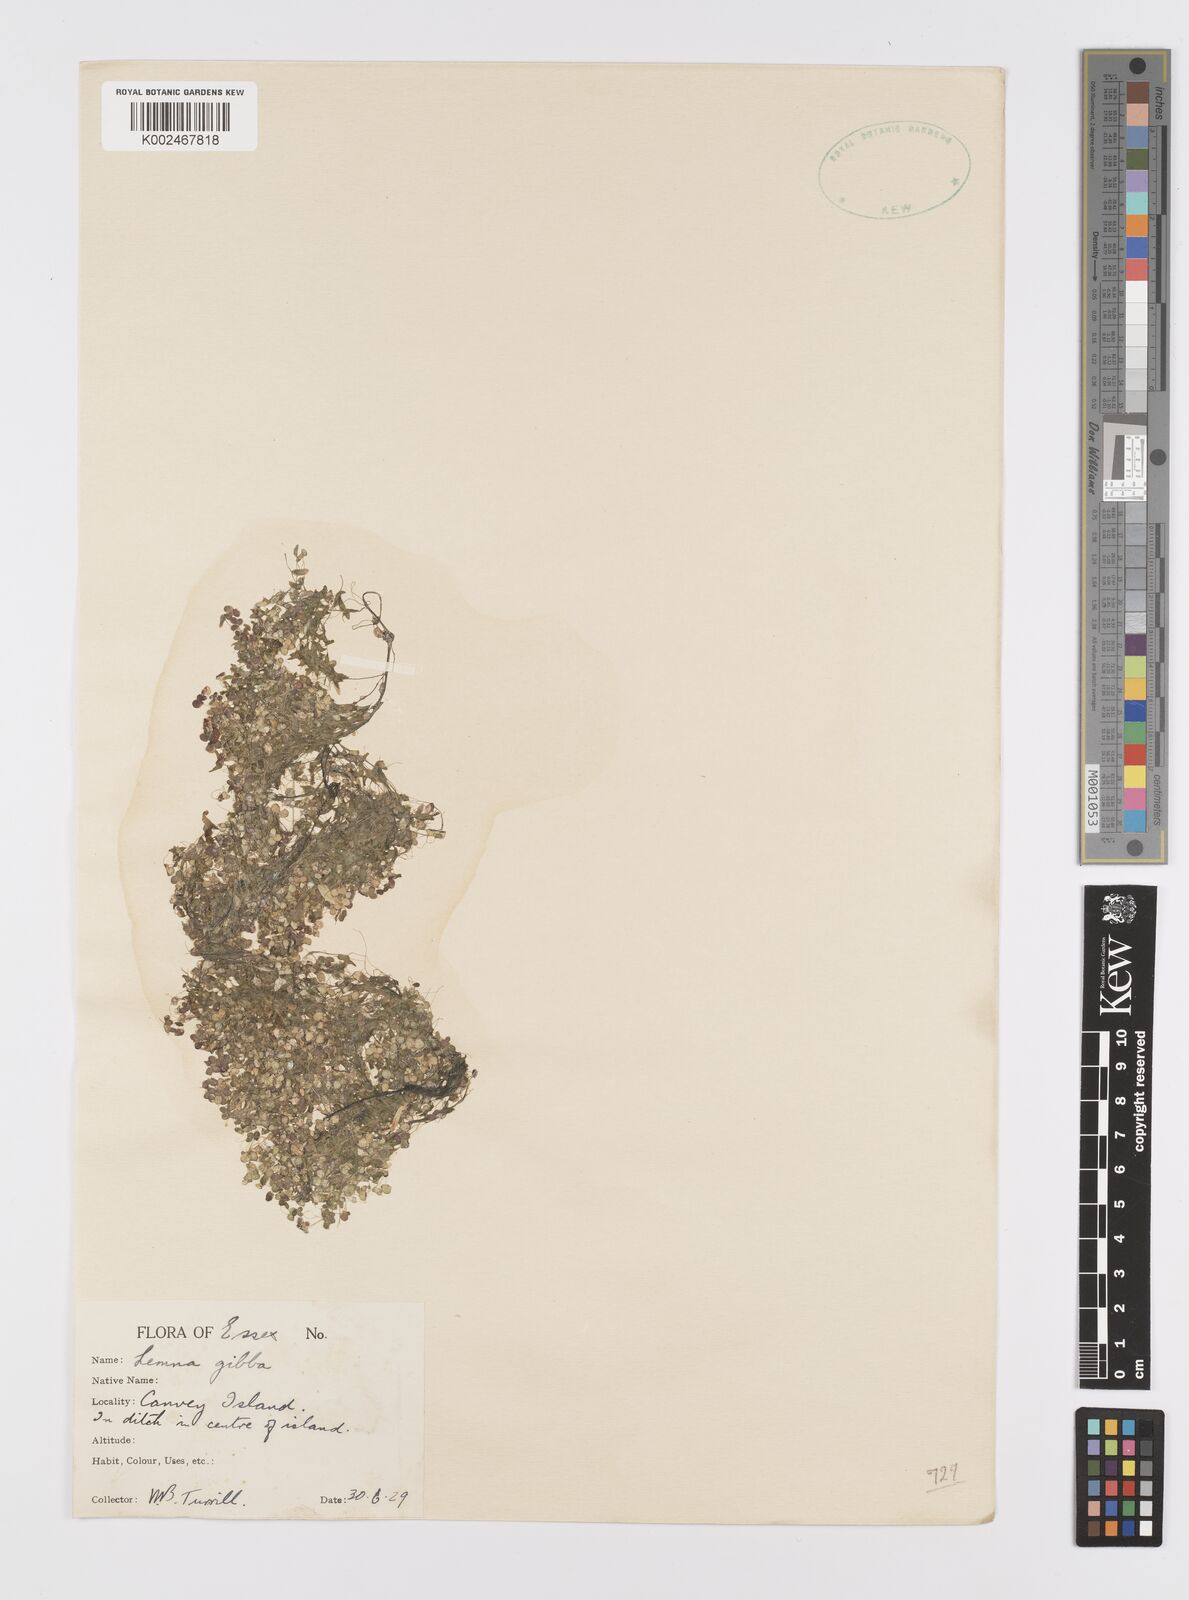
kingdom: Plantae
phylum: Tracheophyta
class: Liliopsida
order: Alismatales
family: Araceae
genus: Lemna
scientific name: Lemna gibba
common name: Fat duckweed
